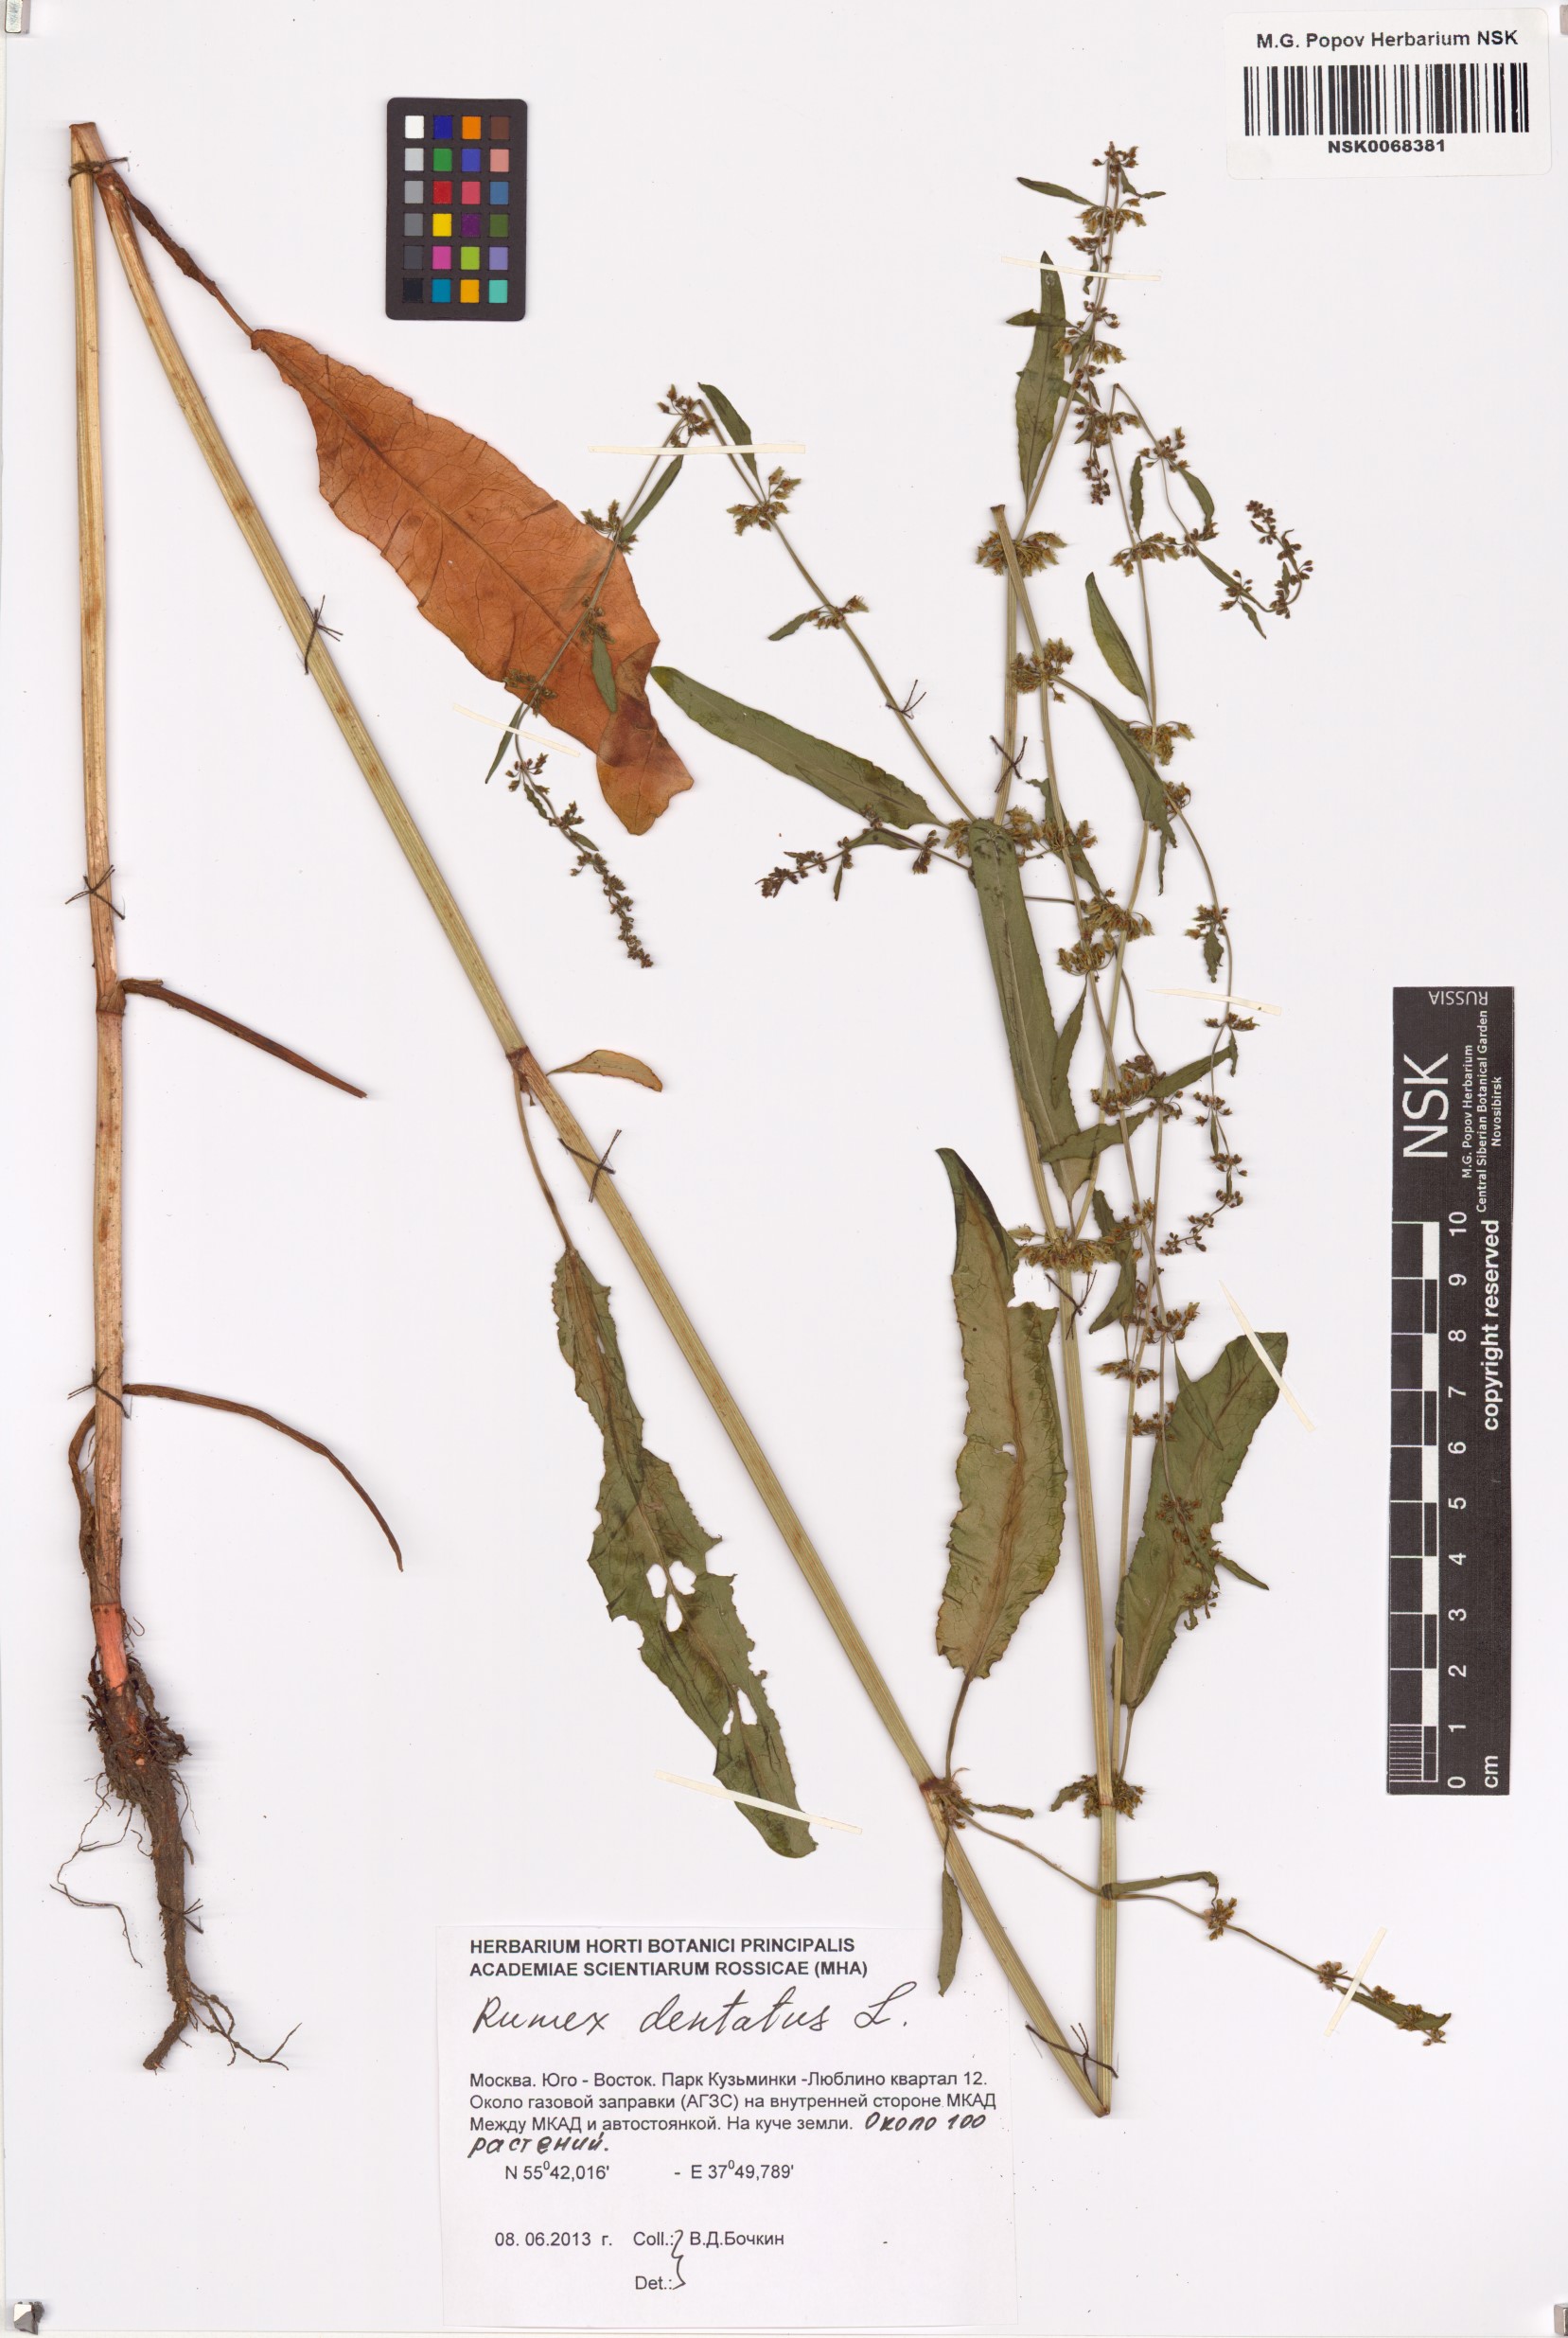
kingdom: Plantae
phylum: Tracheophyta
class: Magnoliopsida
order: Caryophyllales
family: Polygonaceae
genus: Rumex
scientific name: Rumex dentatus
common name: Toothed dock
